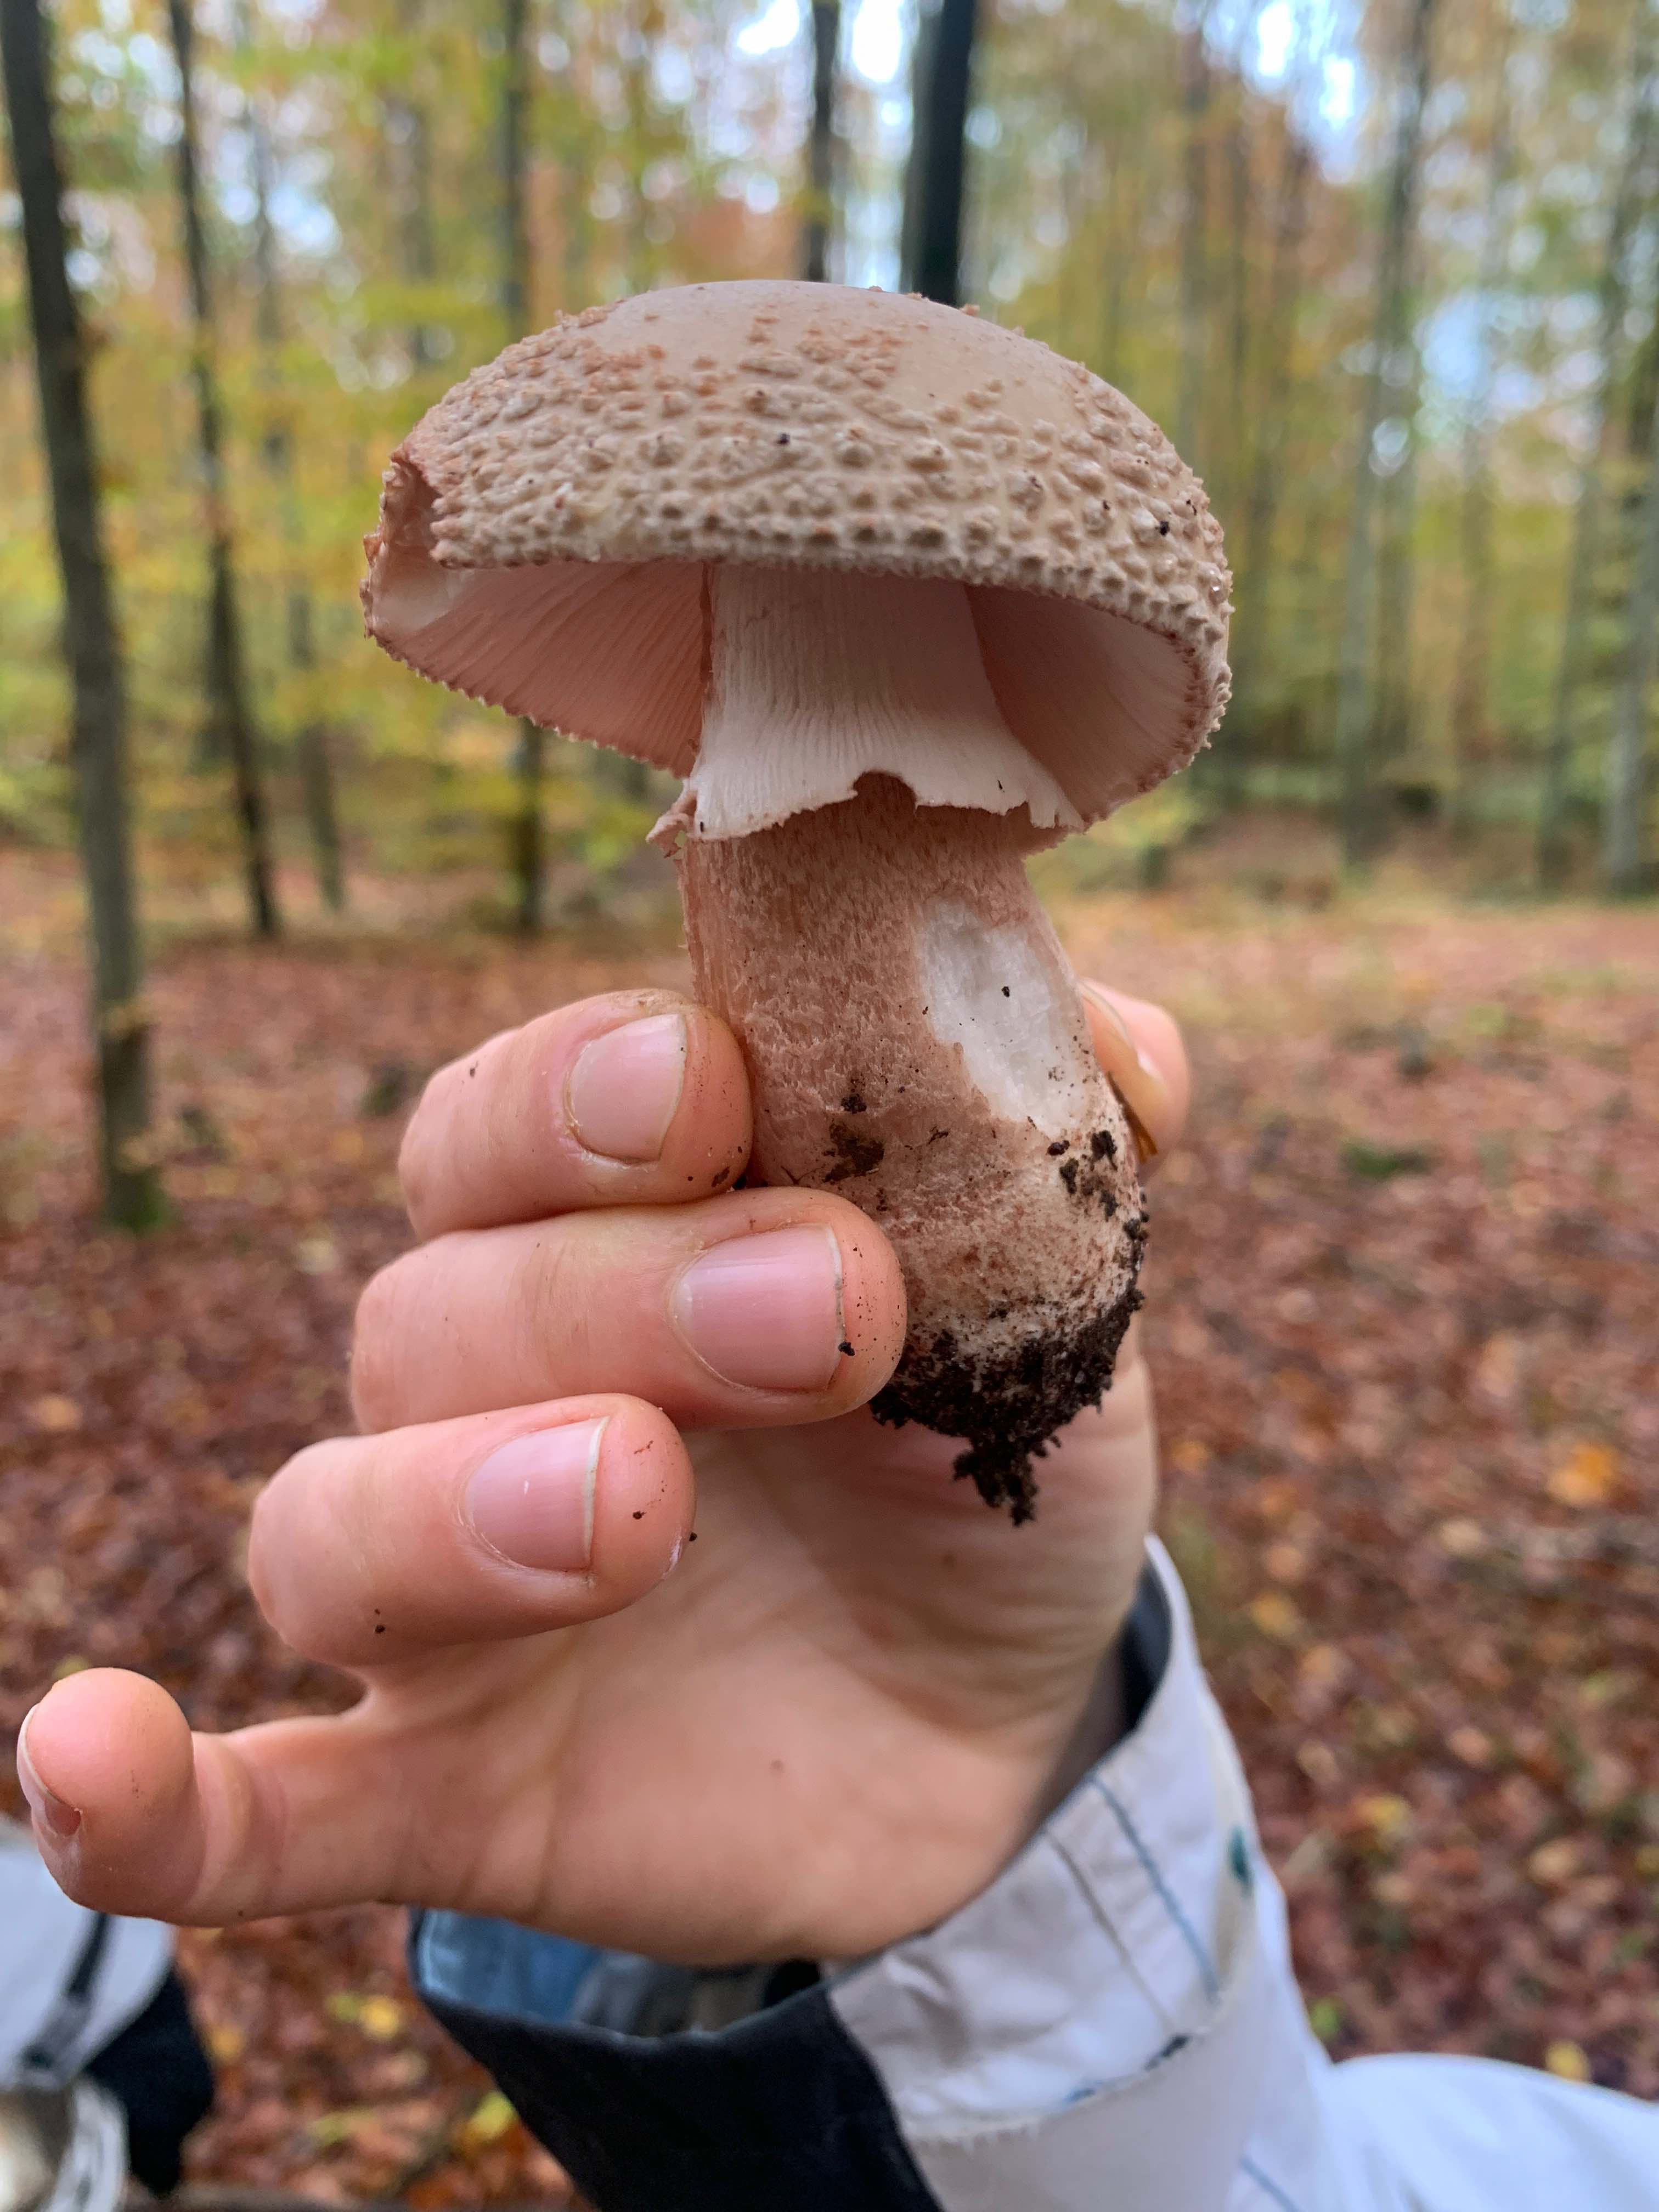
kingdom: Fungi
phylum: Basidiomycota
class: Agaricomycetes
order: Agaricales
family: Amanitaceae
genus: Amanita
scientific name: Amanita rubescens
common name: rødmende fluesvamp
